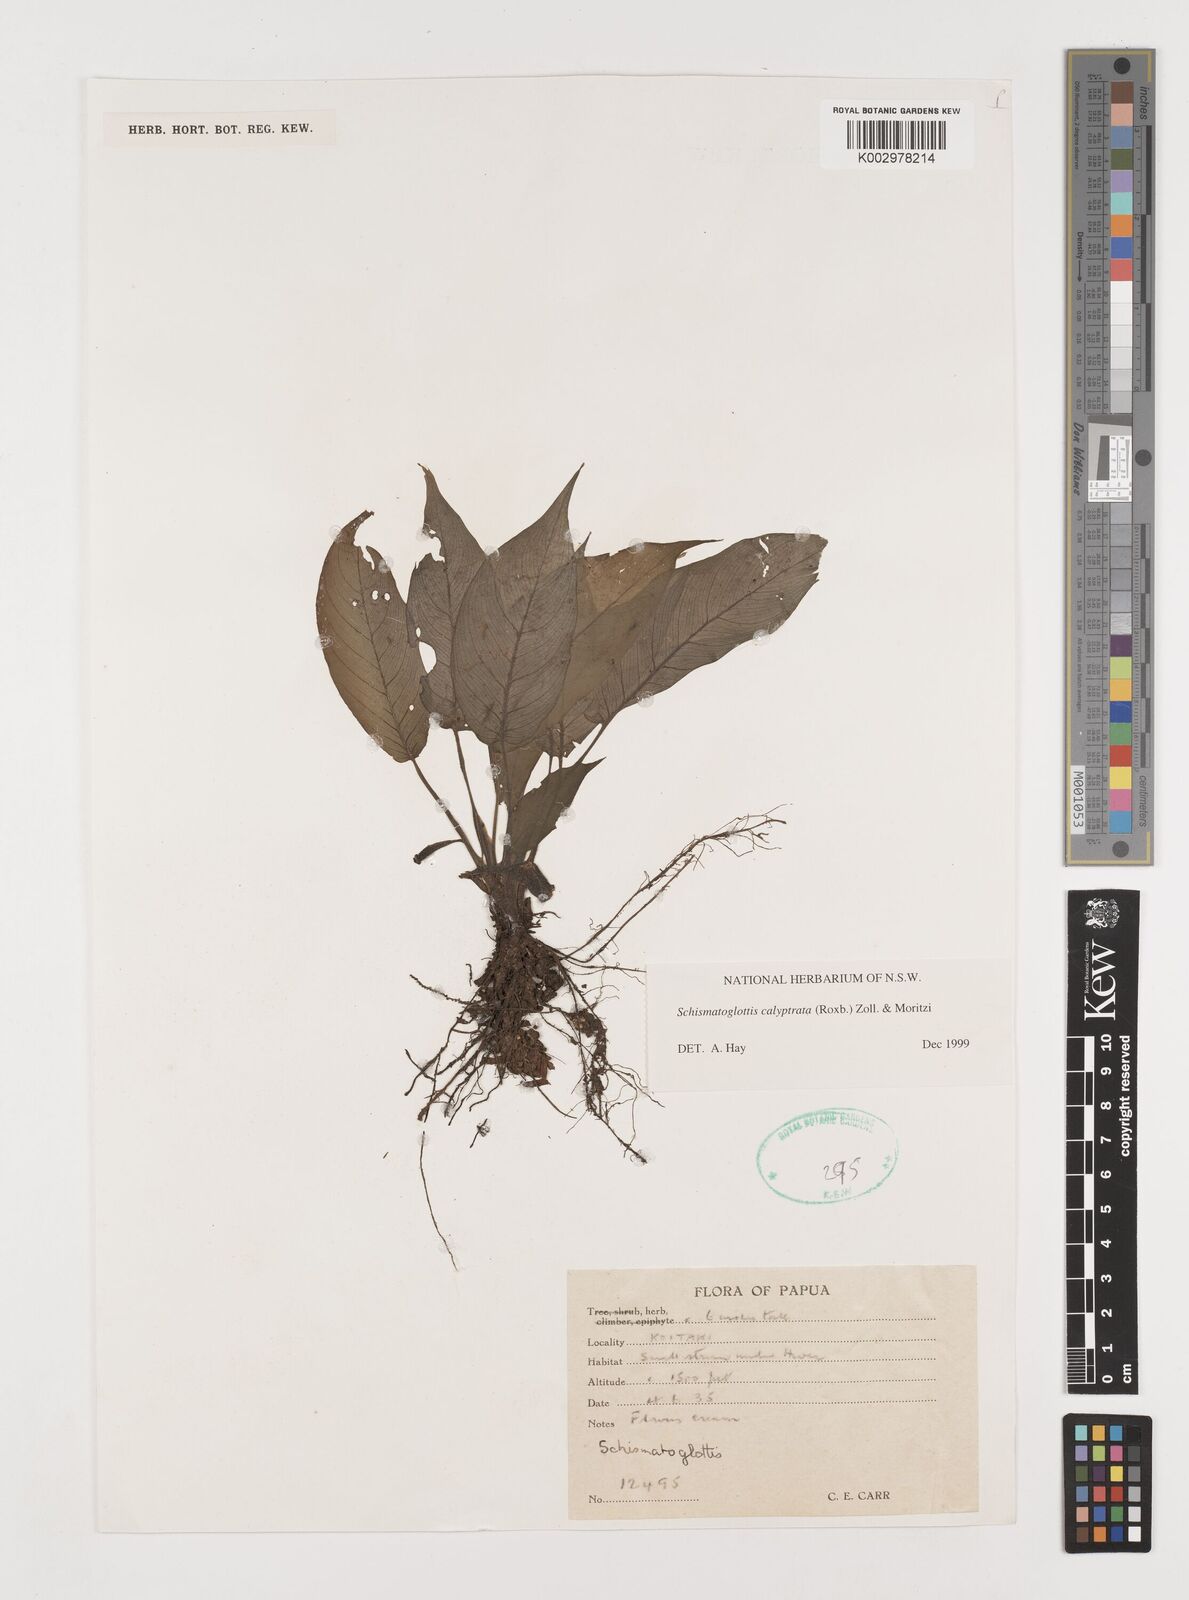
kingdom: Plantae
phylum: Tracheophyta
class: Liliopsida
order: Alismatales
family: Araceae
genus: Schismatoglottis
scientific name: Schismatoglottis calyptrata
